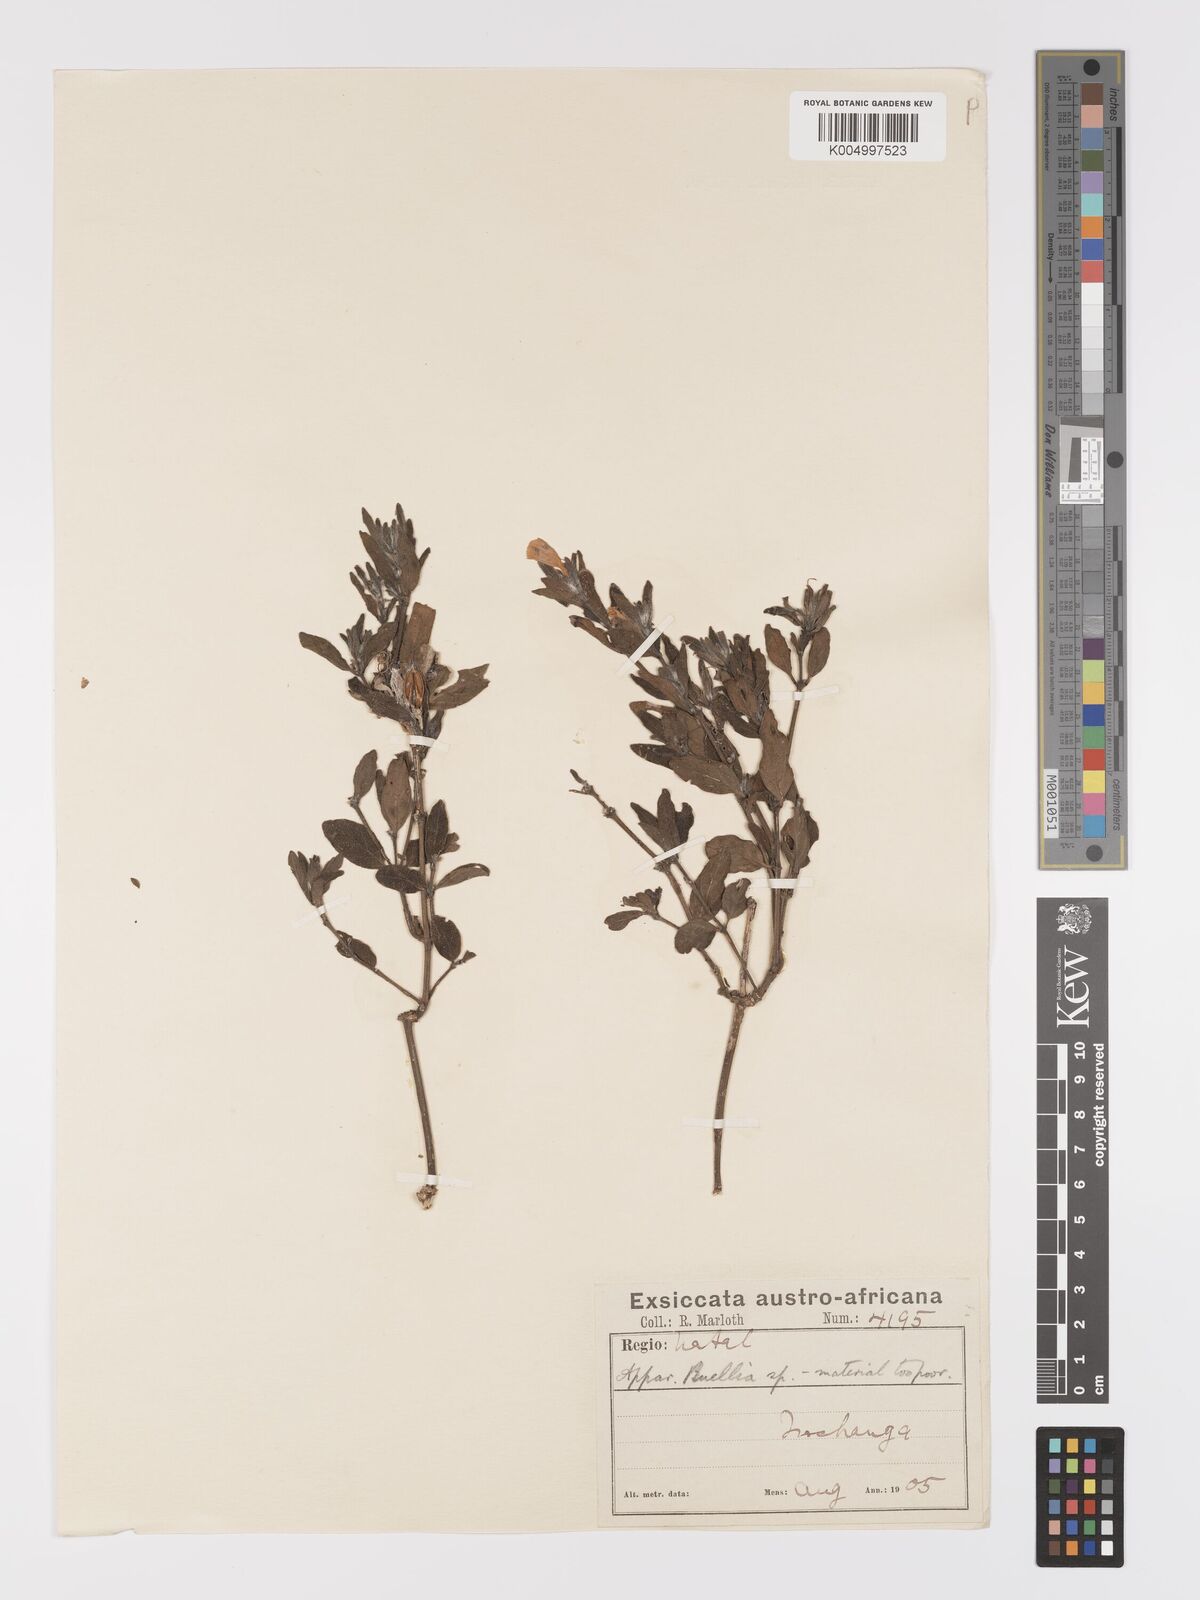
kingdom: Plantae
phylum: Tracheophyta
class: Magnoliopsida
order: Lamiales
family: Acanthaceae
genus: Ruellia
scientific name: Ruellia
